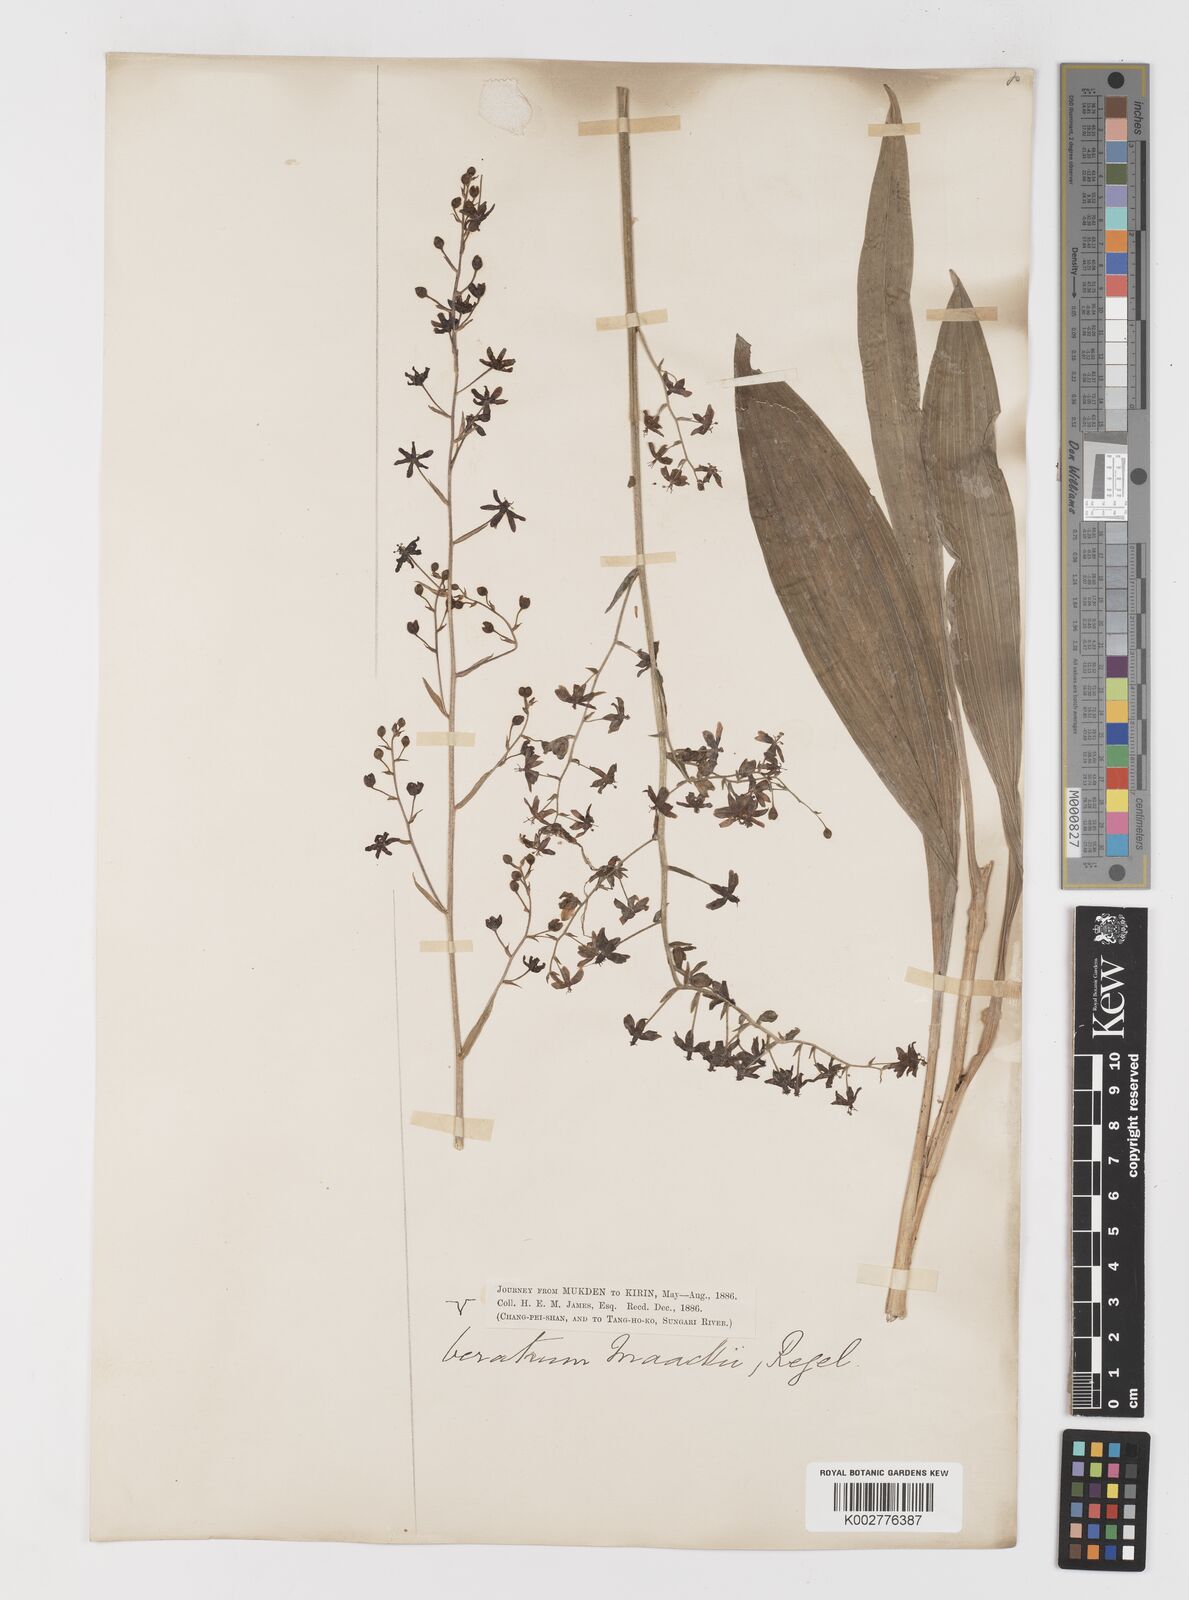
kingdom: Plantae
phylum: Tracheophyta
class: Liliopsida
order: Liliales
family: Melanthiaceae
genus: Veratrum
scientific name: Veratrum maackii
